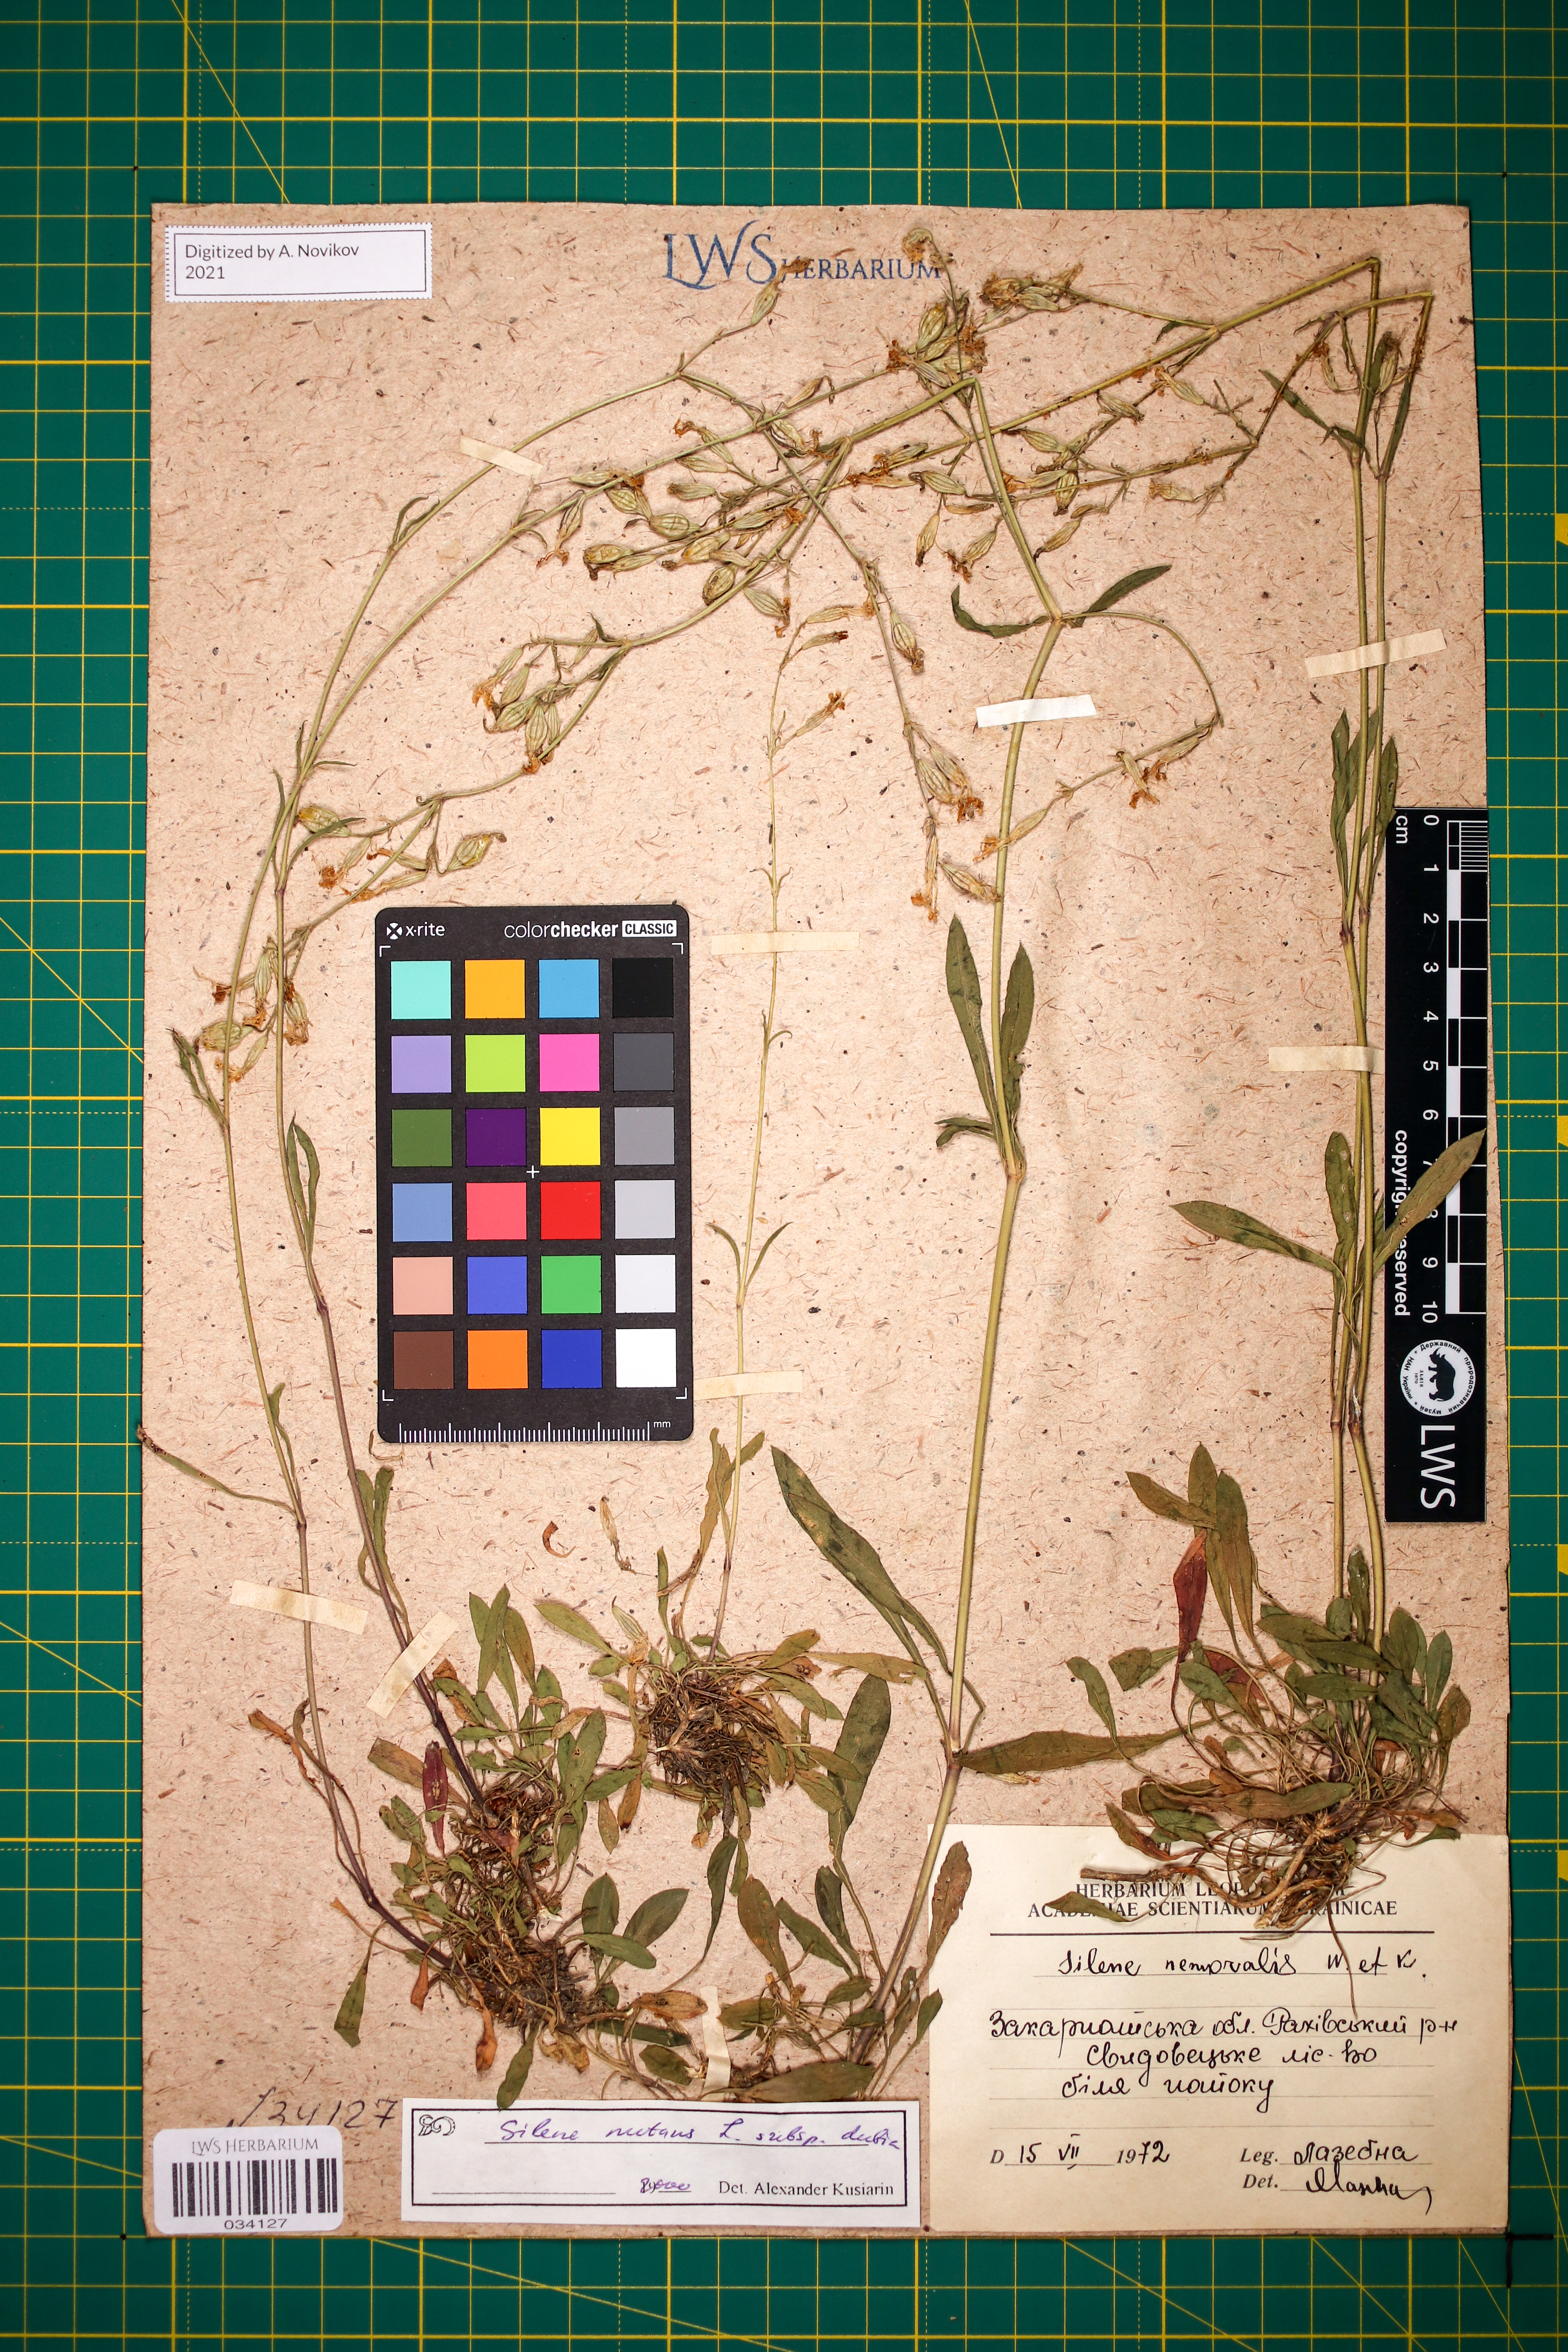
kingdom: Plantae
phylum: Tracheophyta
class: Magnoliopsida
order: Caryophyllales
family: Caryophyllaceae
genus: Silene
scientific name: Silene nutans
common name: Nottingham catchfly
